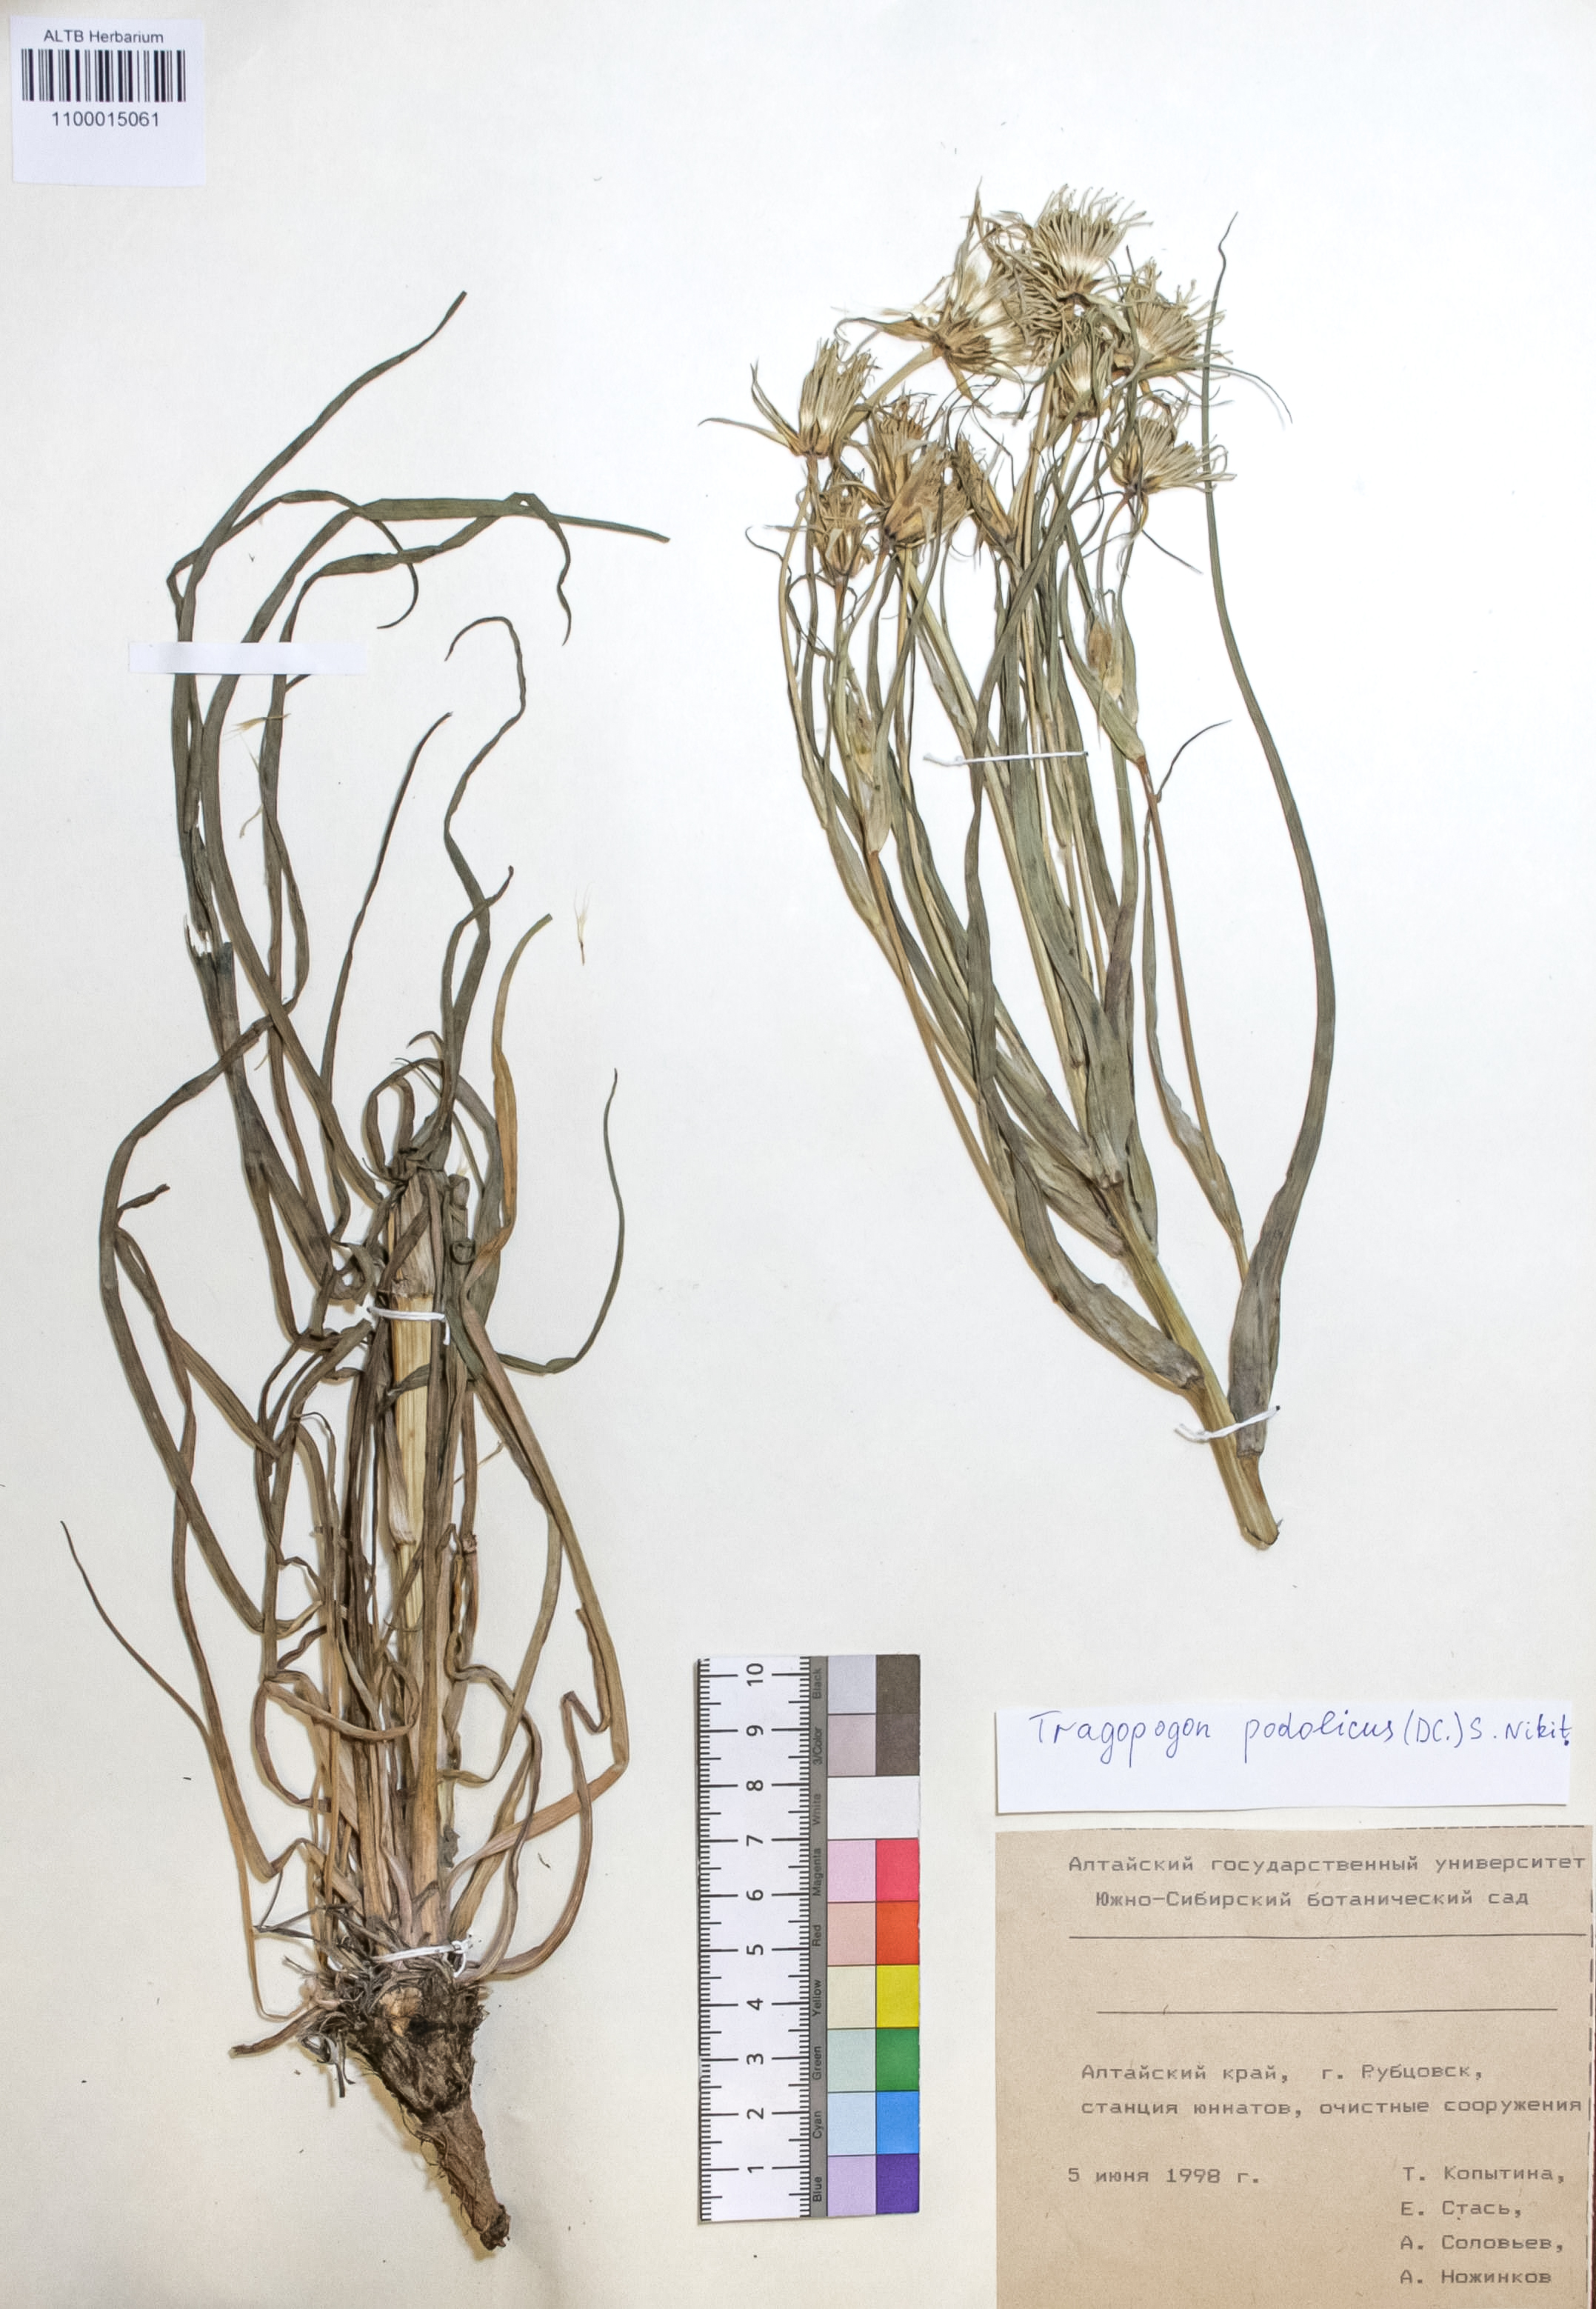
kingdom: Plantae
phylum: Tracheophyta
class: Magnoliopsida
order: Asterales
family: Asteraceae
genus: Tragopogon
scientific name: Tragopogon podolicus
